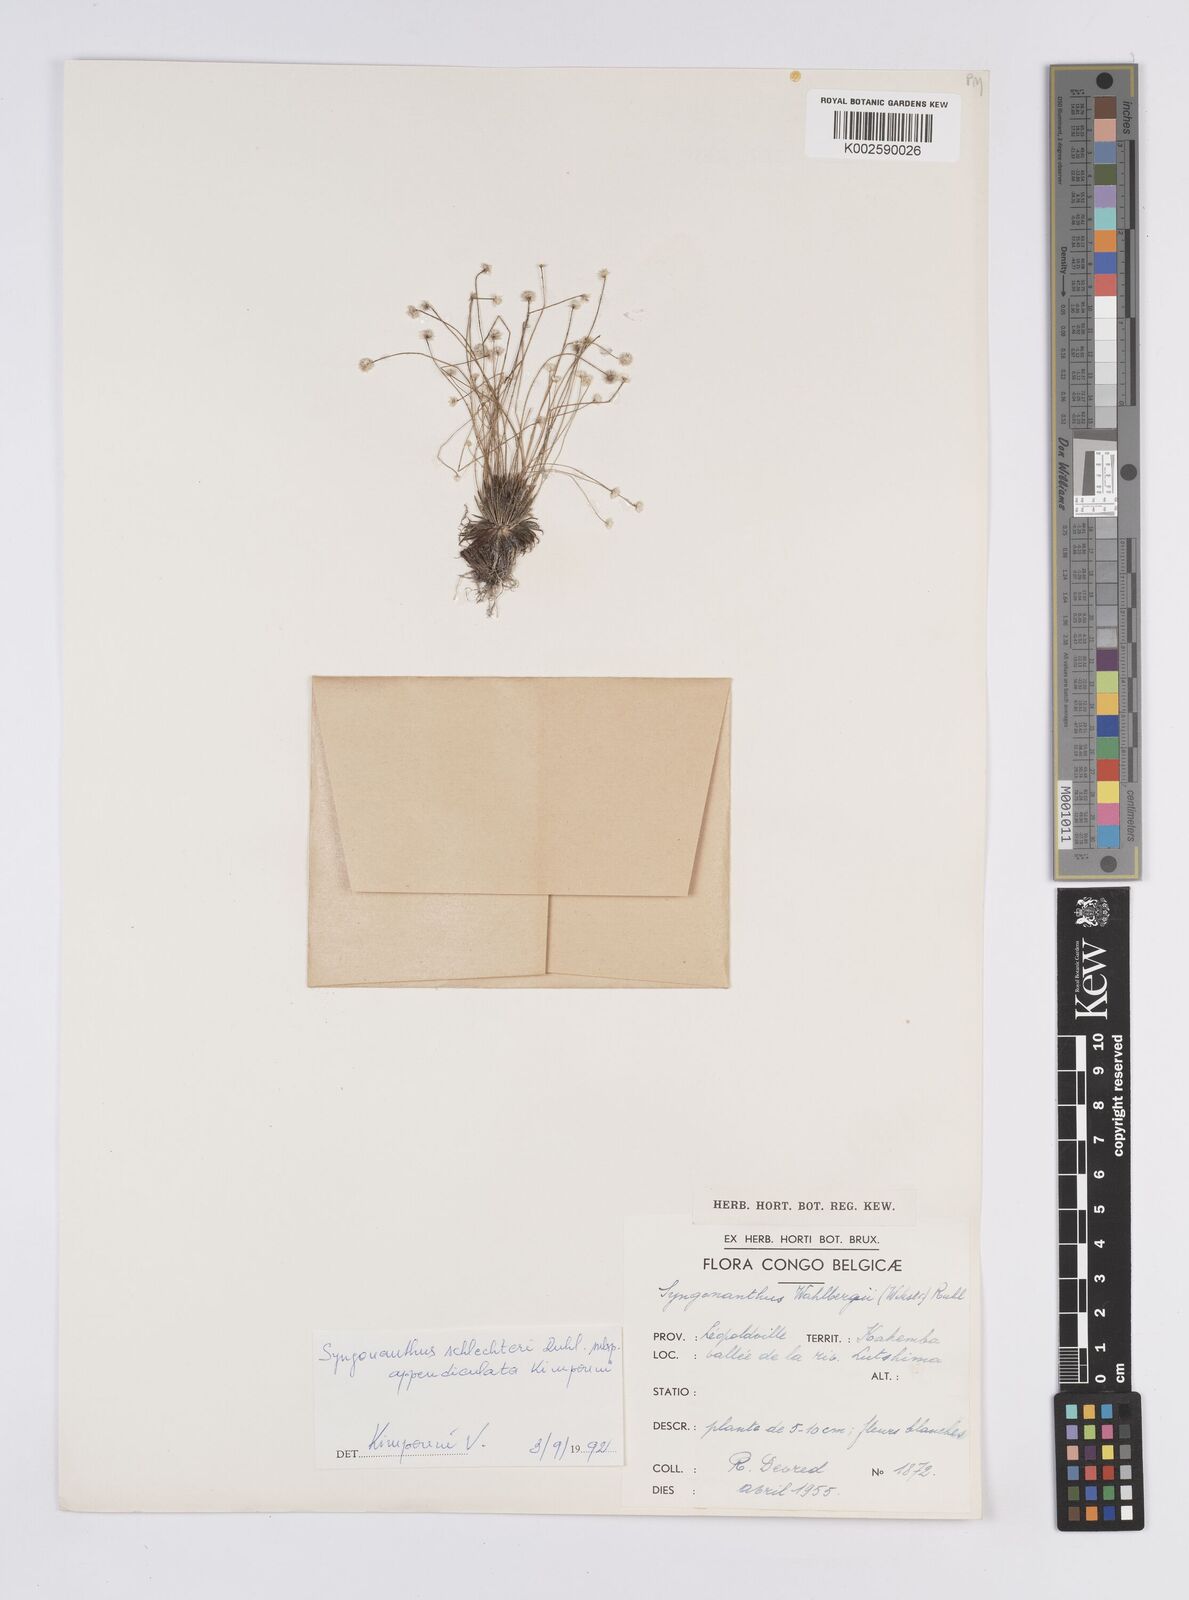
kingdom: Plantae
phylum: Tracheophyta
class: Liliopsida
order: Poales
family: Eriocaulaceae
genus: Syngonanthus
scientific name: Syngonanthus schlechteri
